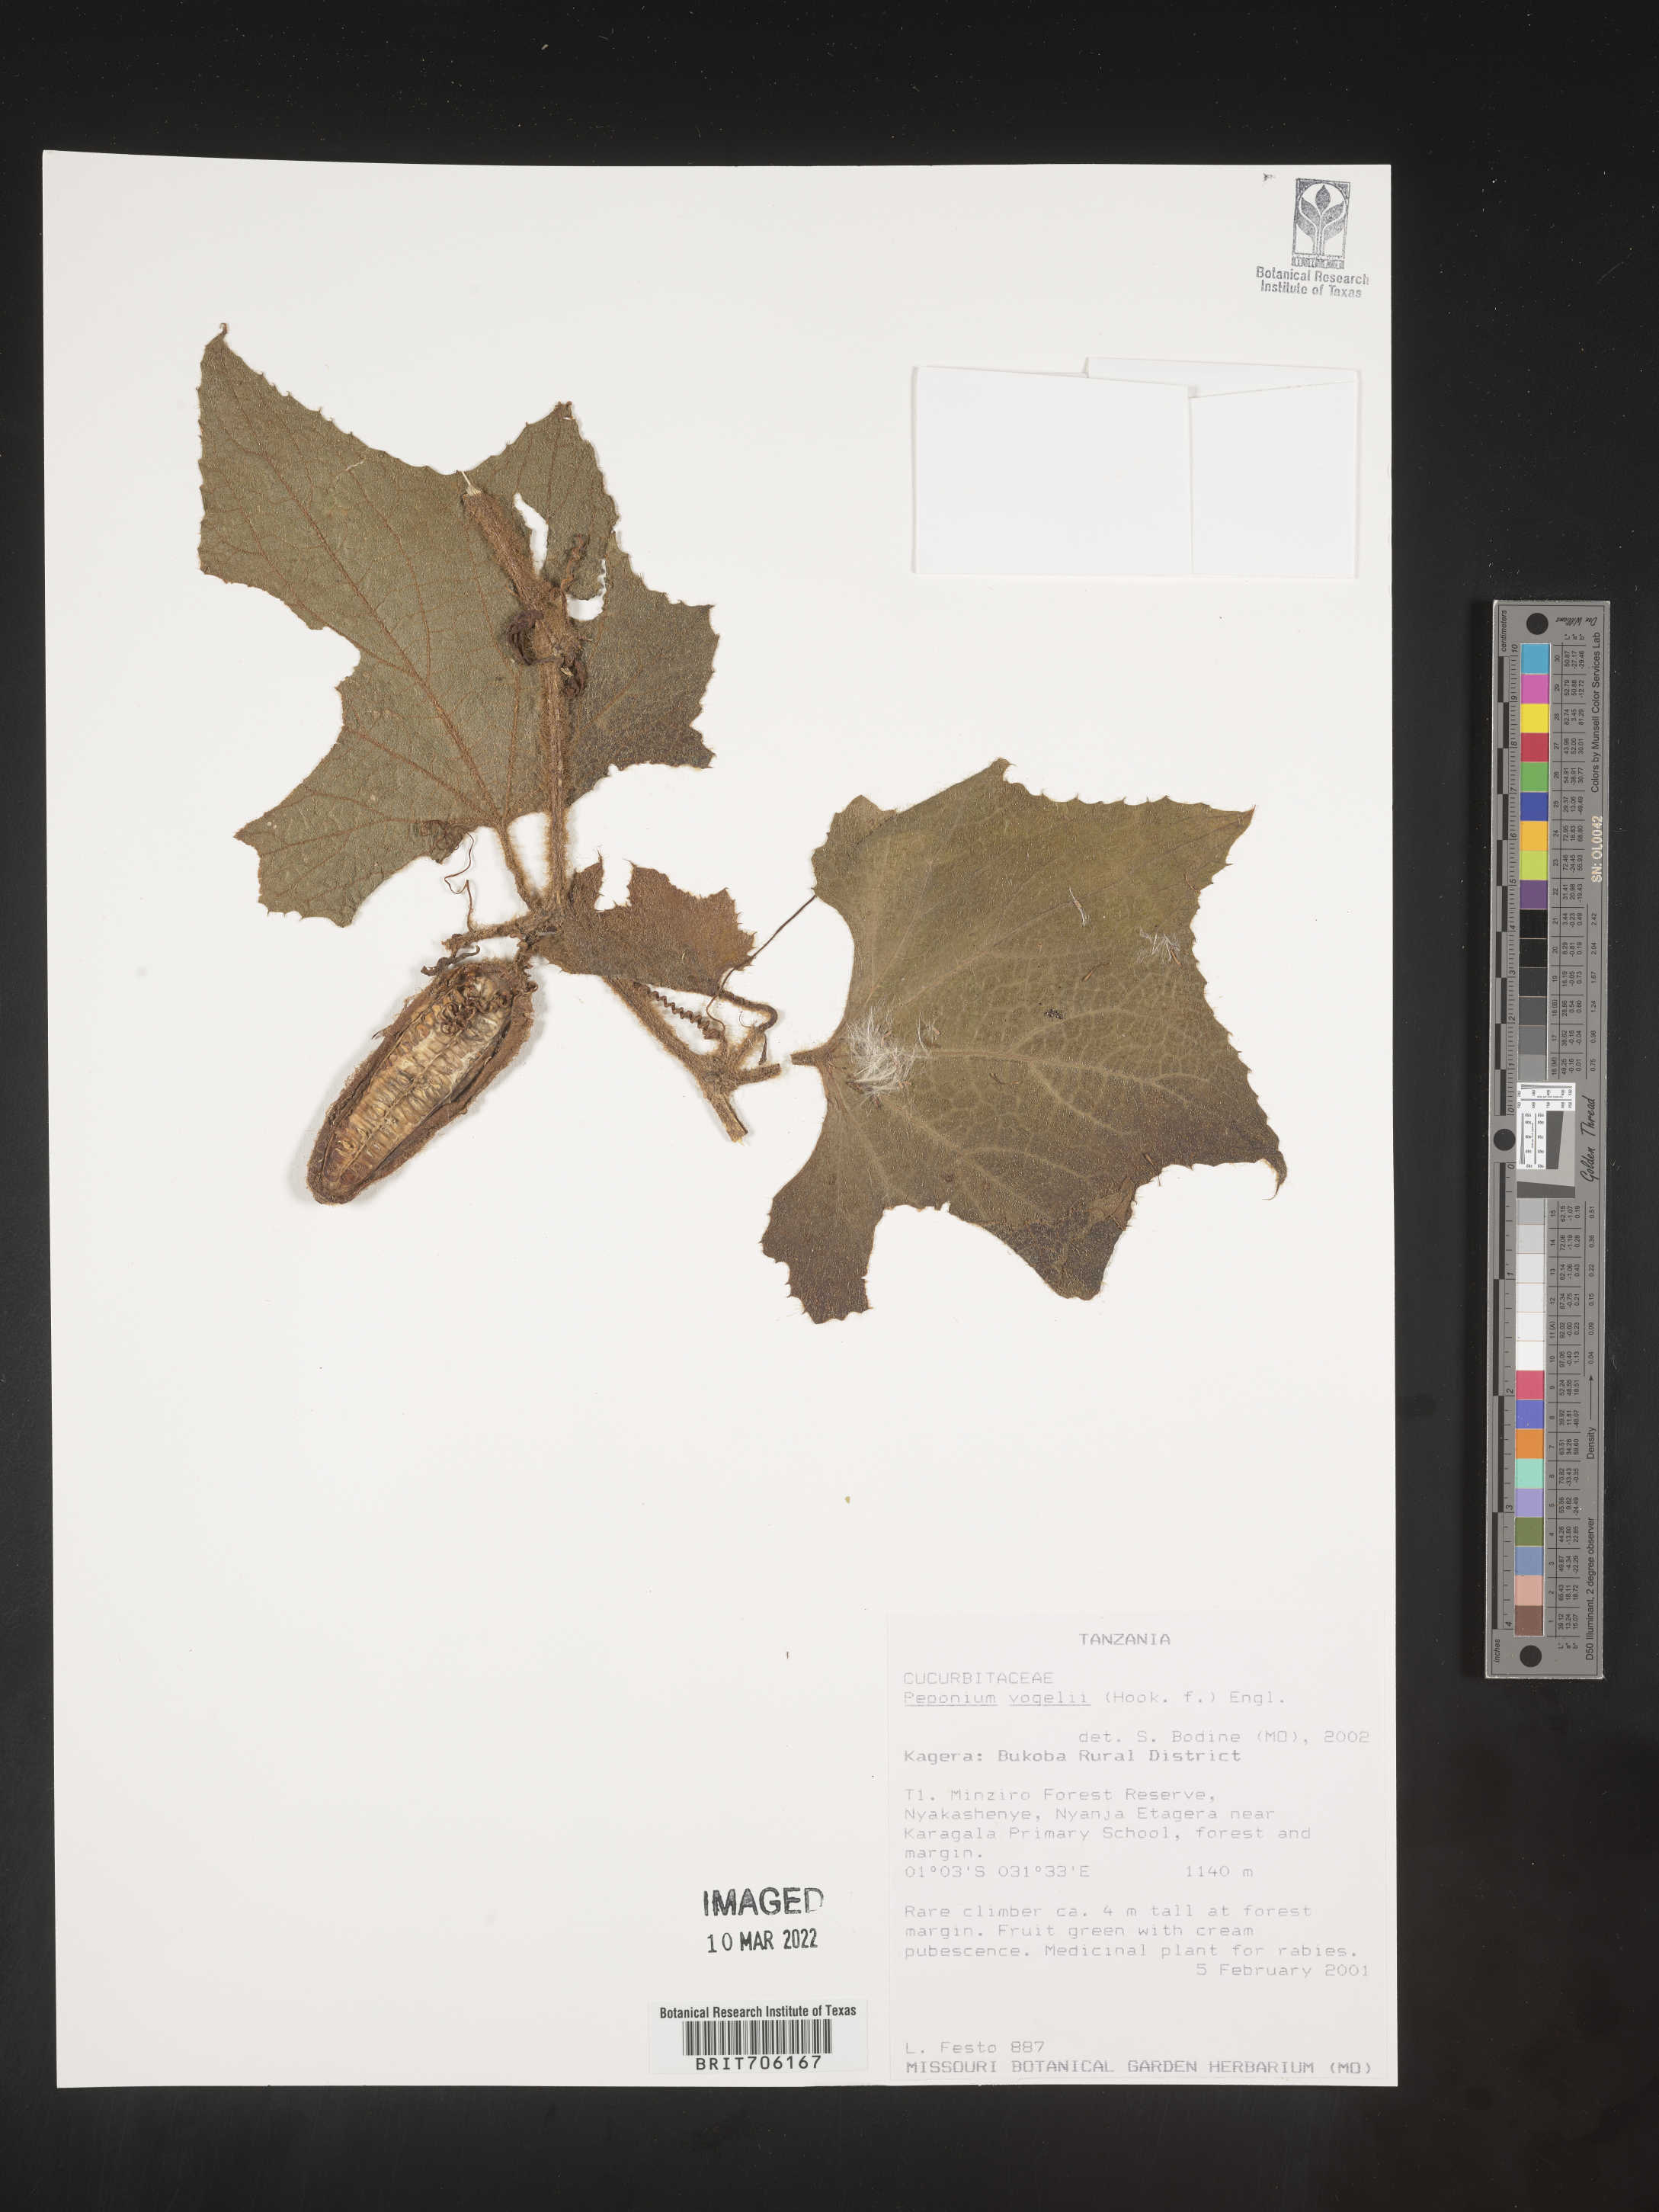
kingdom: Plantae
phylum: Tracheophyta
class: Magnoliopsida
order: Cucurbitales
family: Cucurbitaceae
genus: Peponium
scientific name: Peponium
